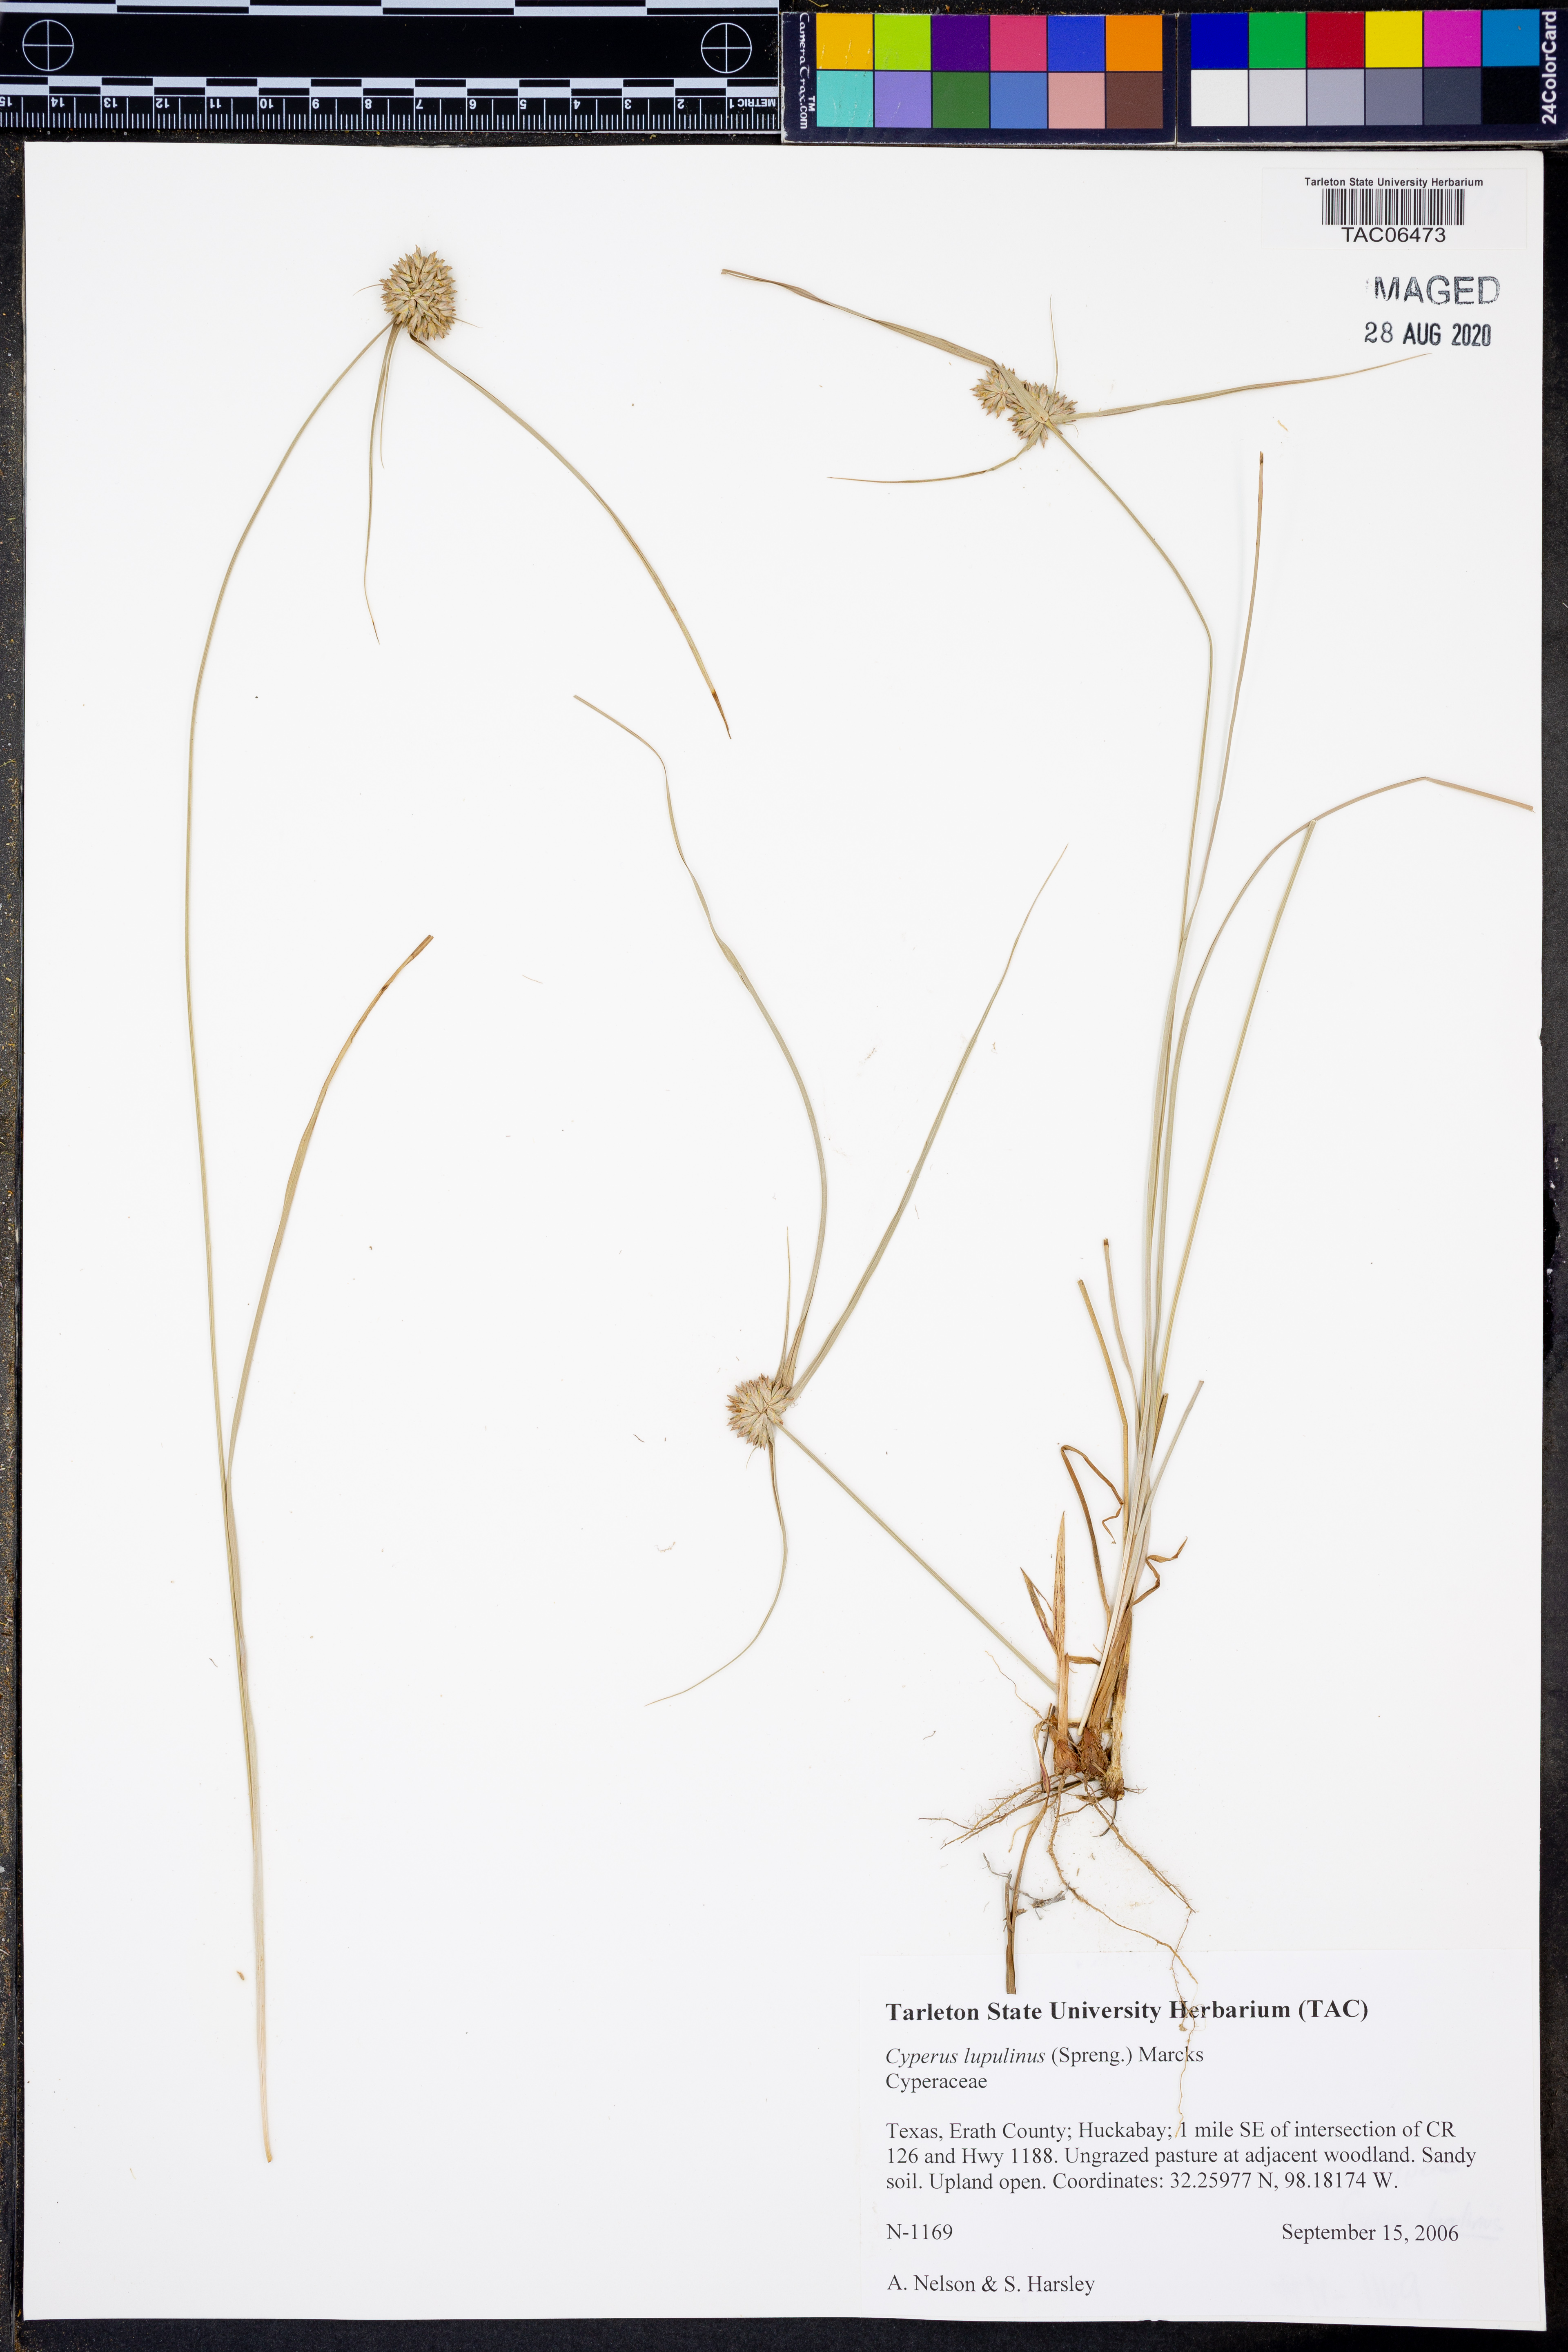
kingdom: Plantae
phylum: Tracheophyta
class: Liliopsida
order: Poales
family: Cyperaceae
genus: Cyperus
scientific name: Cyperus lupulinus
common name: Great plains flatsedge
